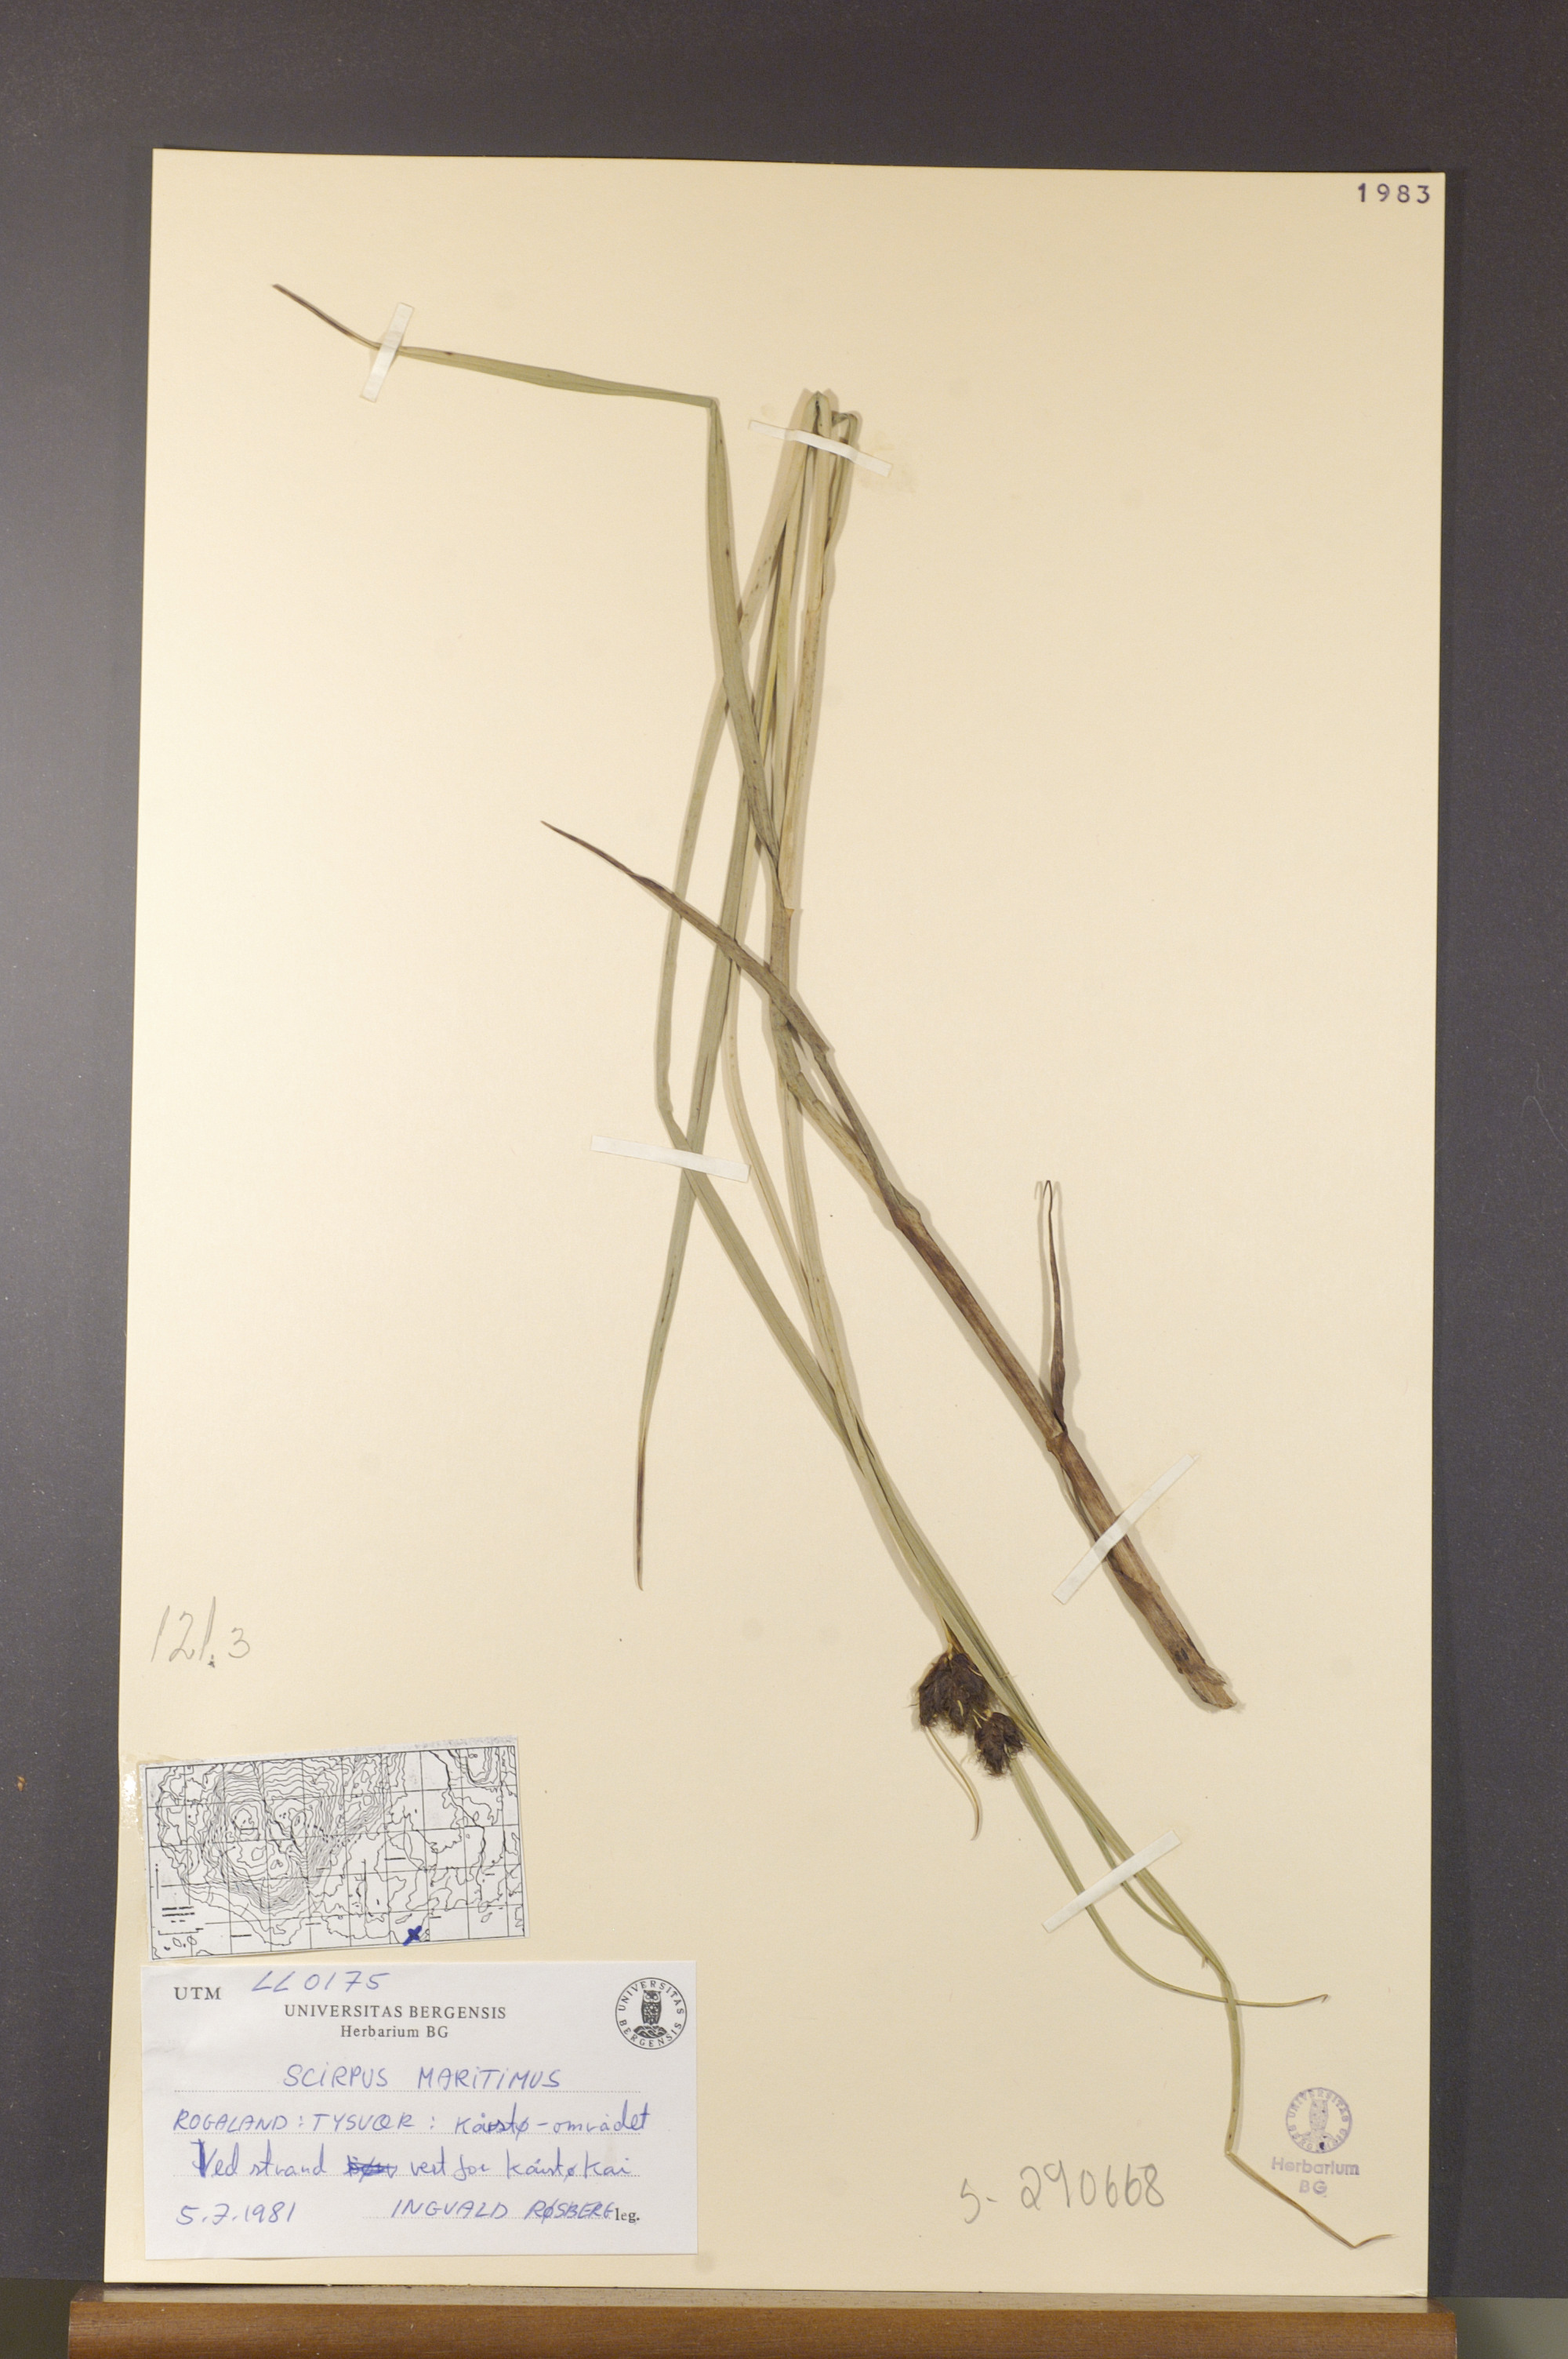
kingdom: Plantae
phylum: Tracheophyta
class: Liliopsida
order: Poales
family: Cyperaceae
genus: Bolboschoenus
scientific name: Bolboschoenus maritimus
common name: Sea club-rush
